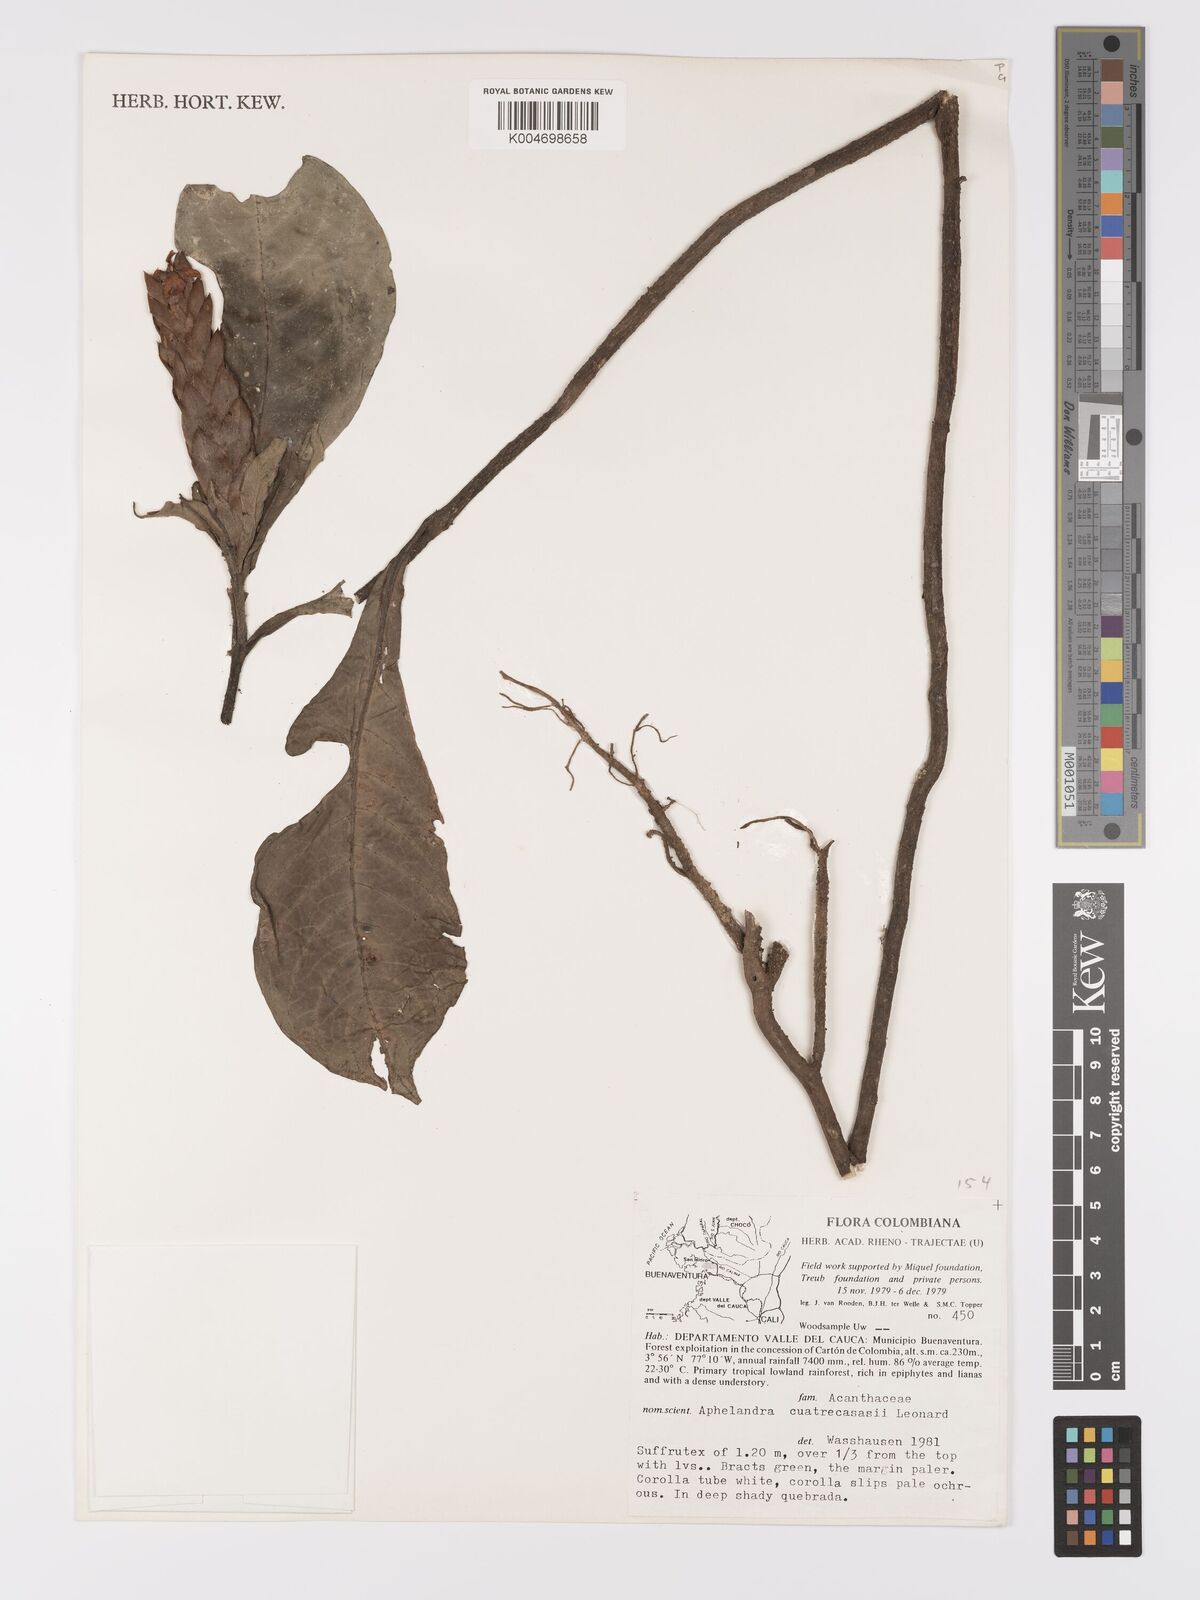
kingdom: Plantae
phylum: Tracheophyta
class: Magnoliopsida
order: Lamiales
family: Acanthaceae
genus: Aphelandra
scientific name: Aphelandra cuatrecasasii
